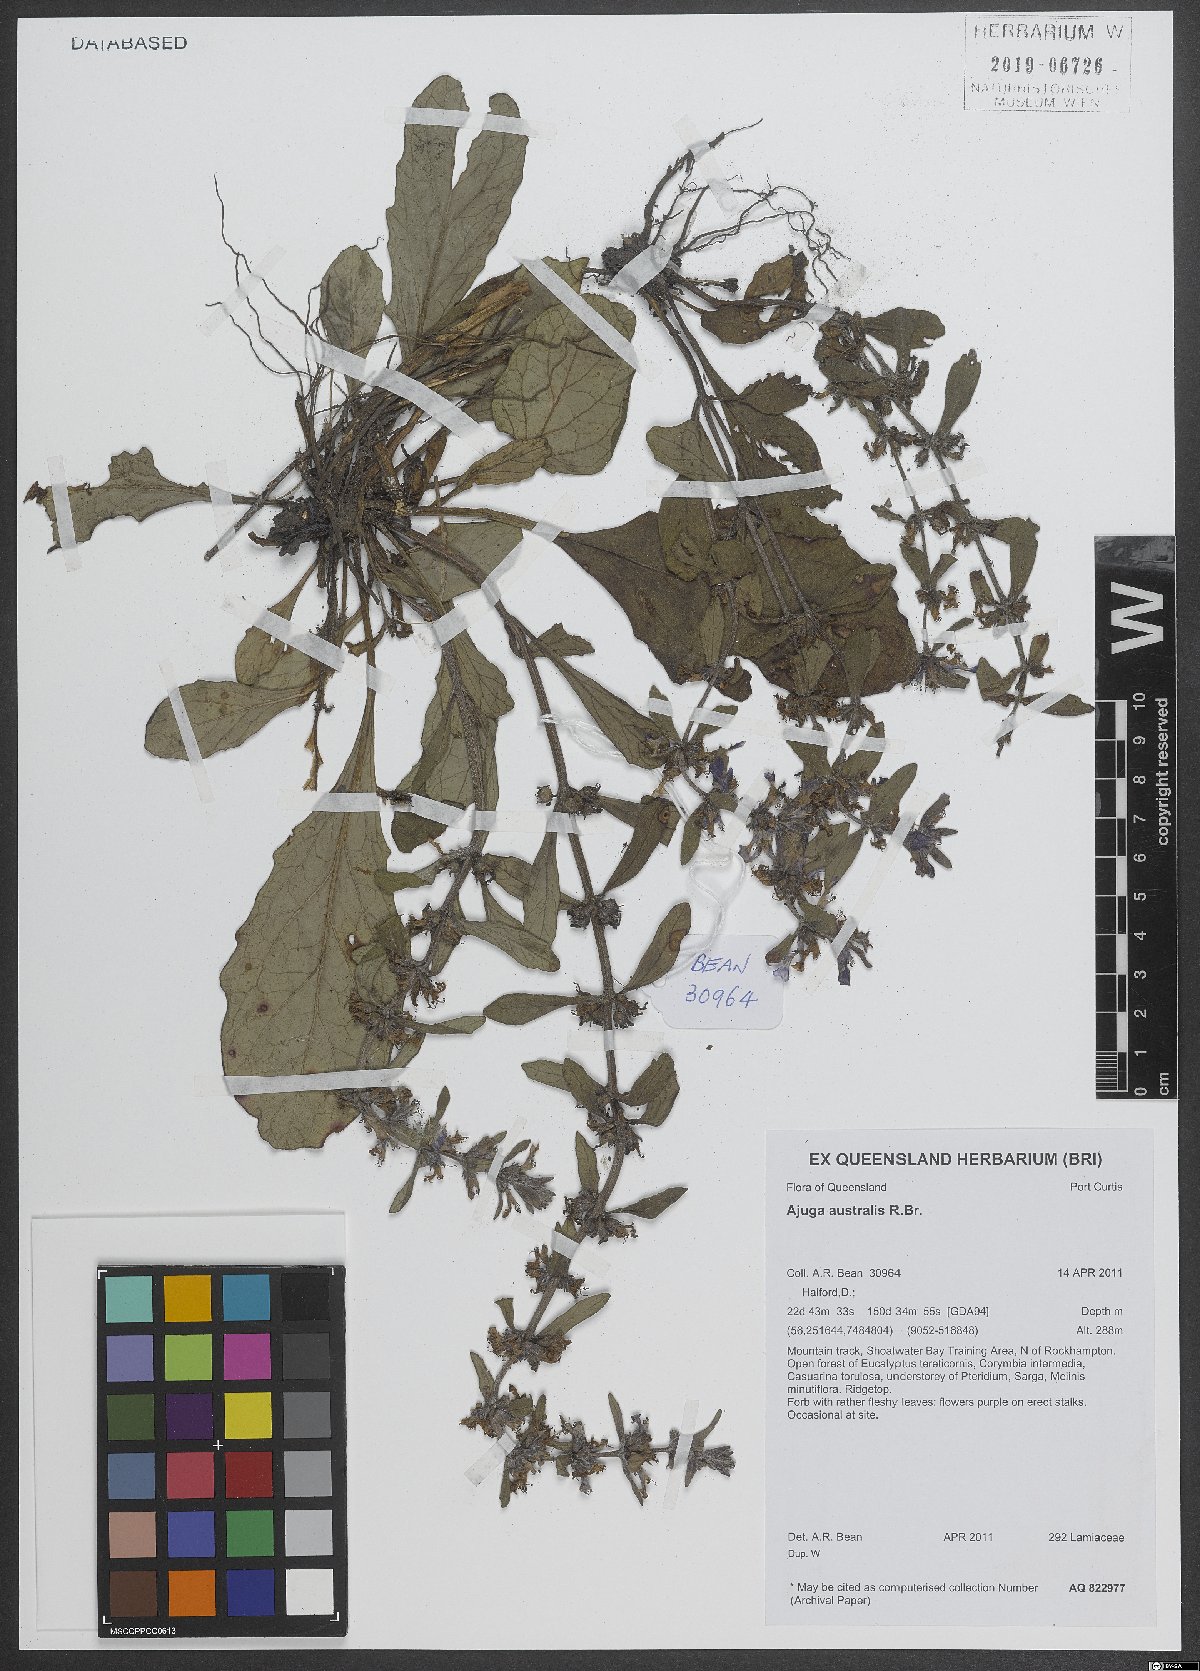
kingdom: Plantae
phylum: Tracheophyta
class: Magnoliopsida
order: Lamiales
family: Lamiaceae
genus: Ajuga
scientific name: Ajuga australis
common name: Australian bugle
